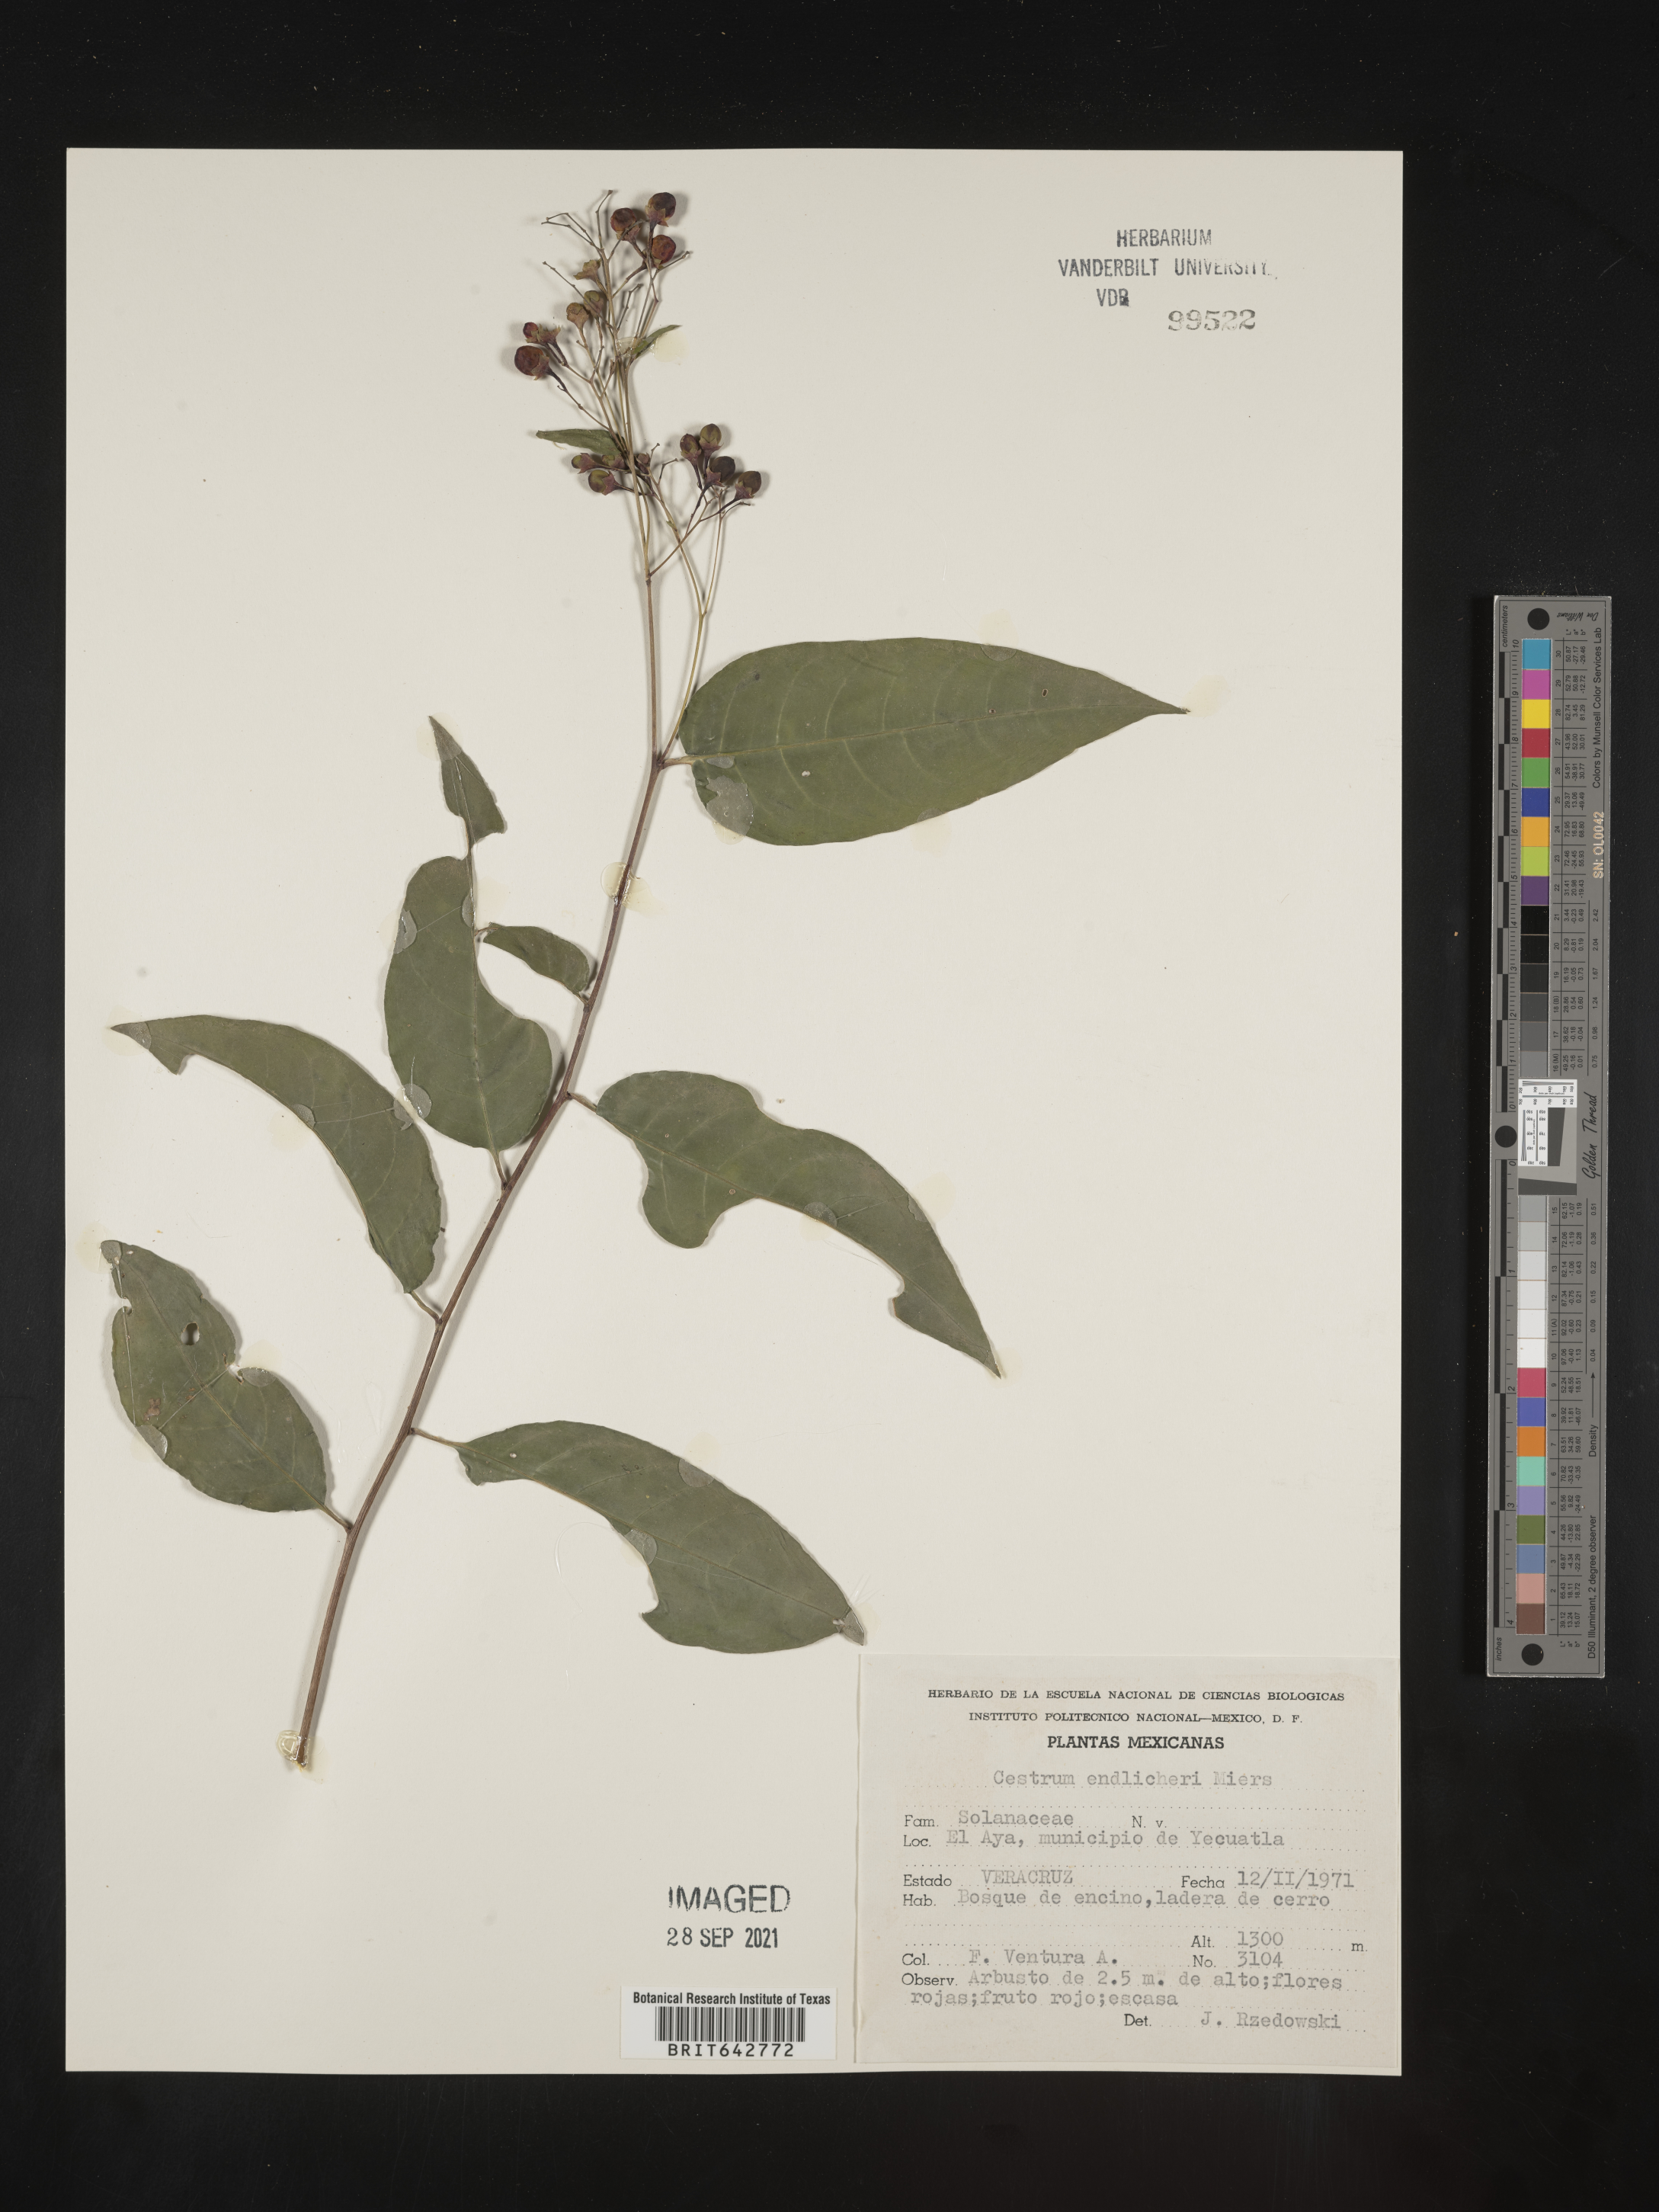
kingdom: Plantae
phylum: Tracheophyta
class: Magnoliopsida
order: Solanales
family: Solanaceae
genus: Cestrum
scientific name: Cestrum
